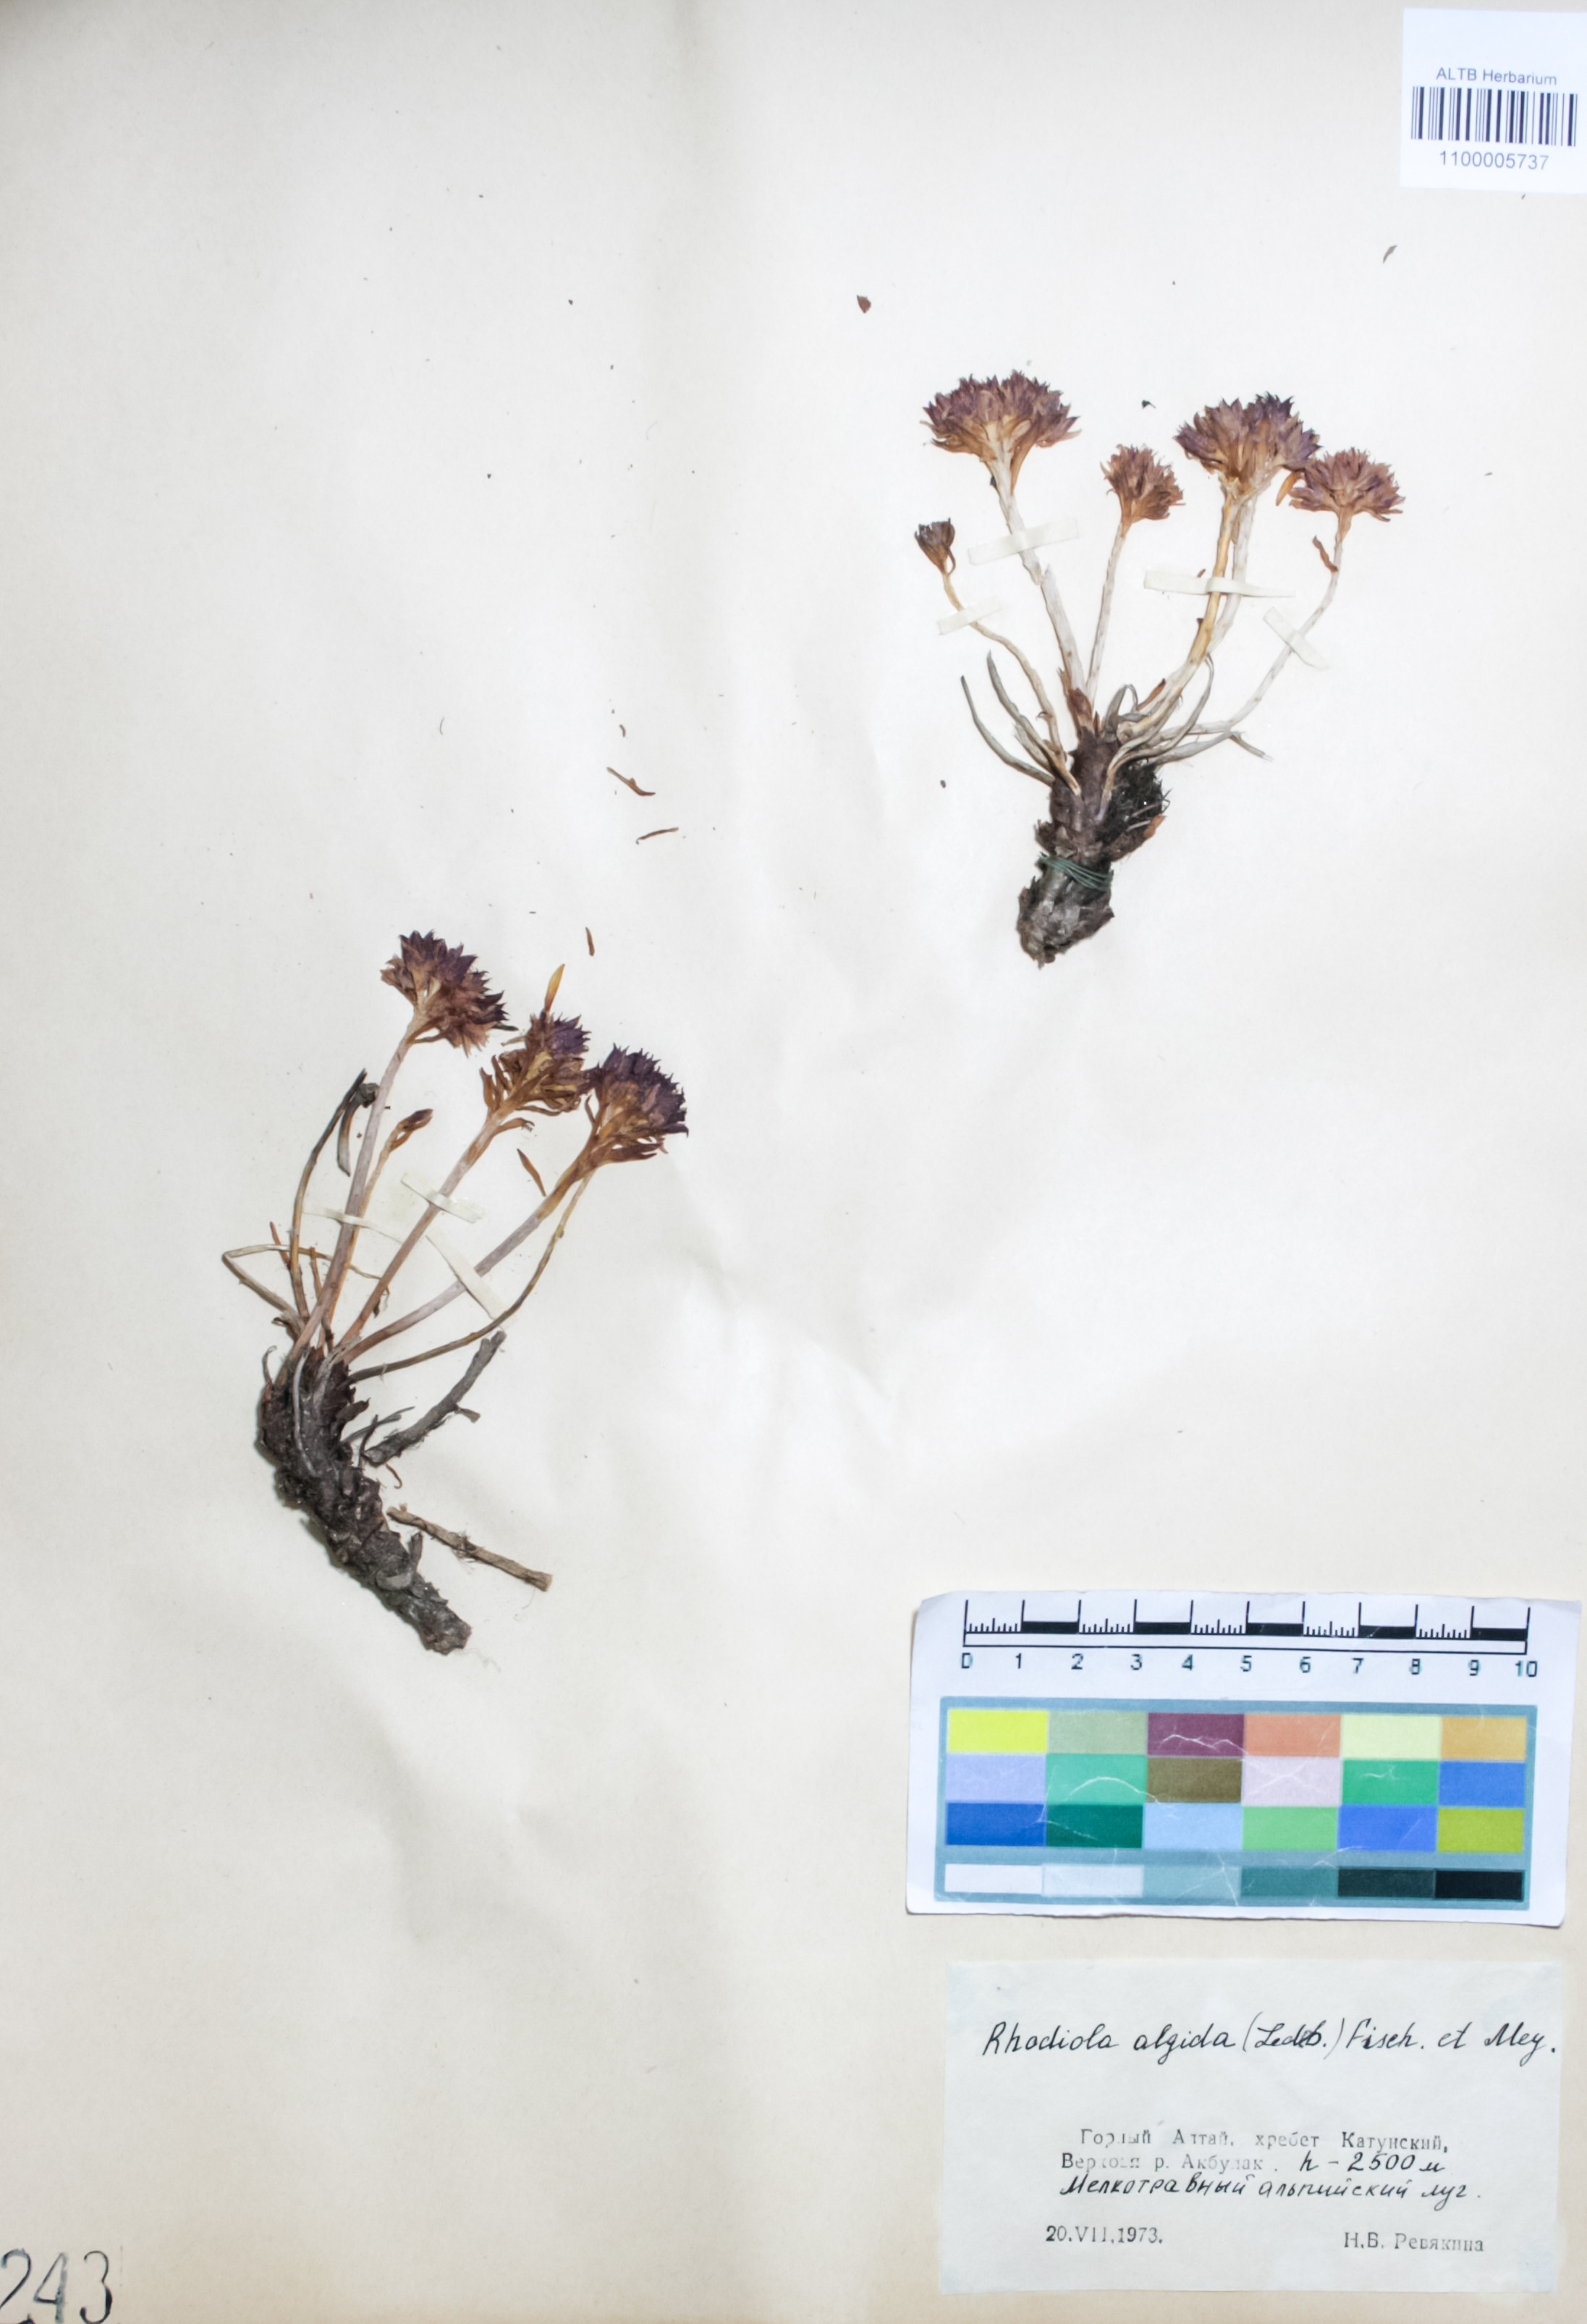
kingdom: Plantae
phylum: Tracheophyta
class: Magnoliopsida
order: Saxifragales
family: Crassulaceae
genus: Rhodiola
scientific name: Rhodiola algida
